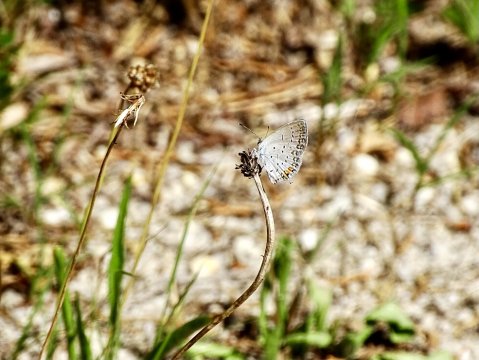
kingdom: Animalia
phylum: Arthropoda
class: Insecta
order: Lepidoptera
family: Lycaenidae
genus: Elkalyce
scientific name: Elkalyce comyntas
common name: Eastern Tailed-Blue
